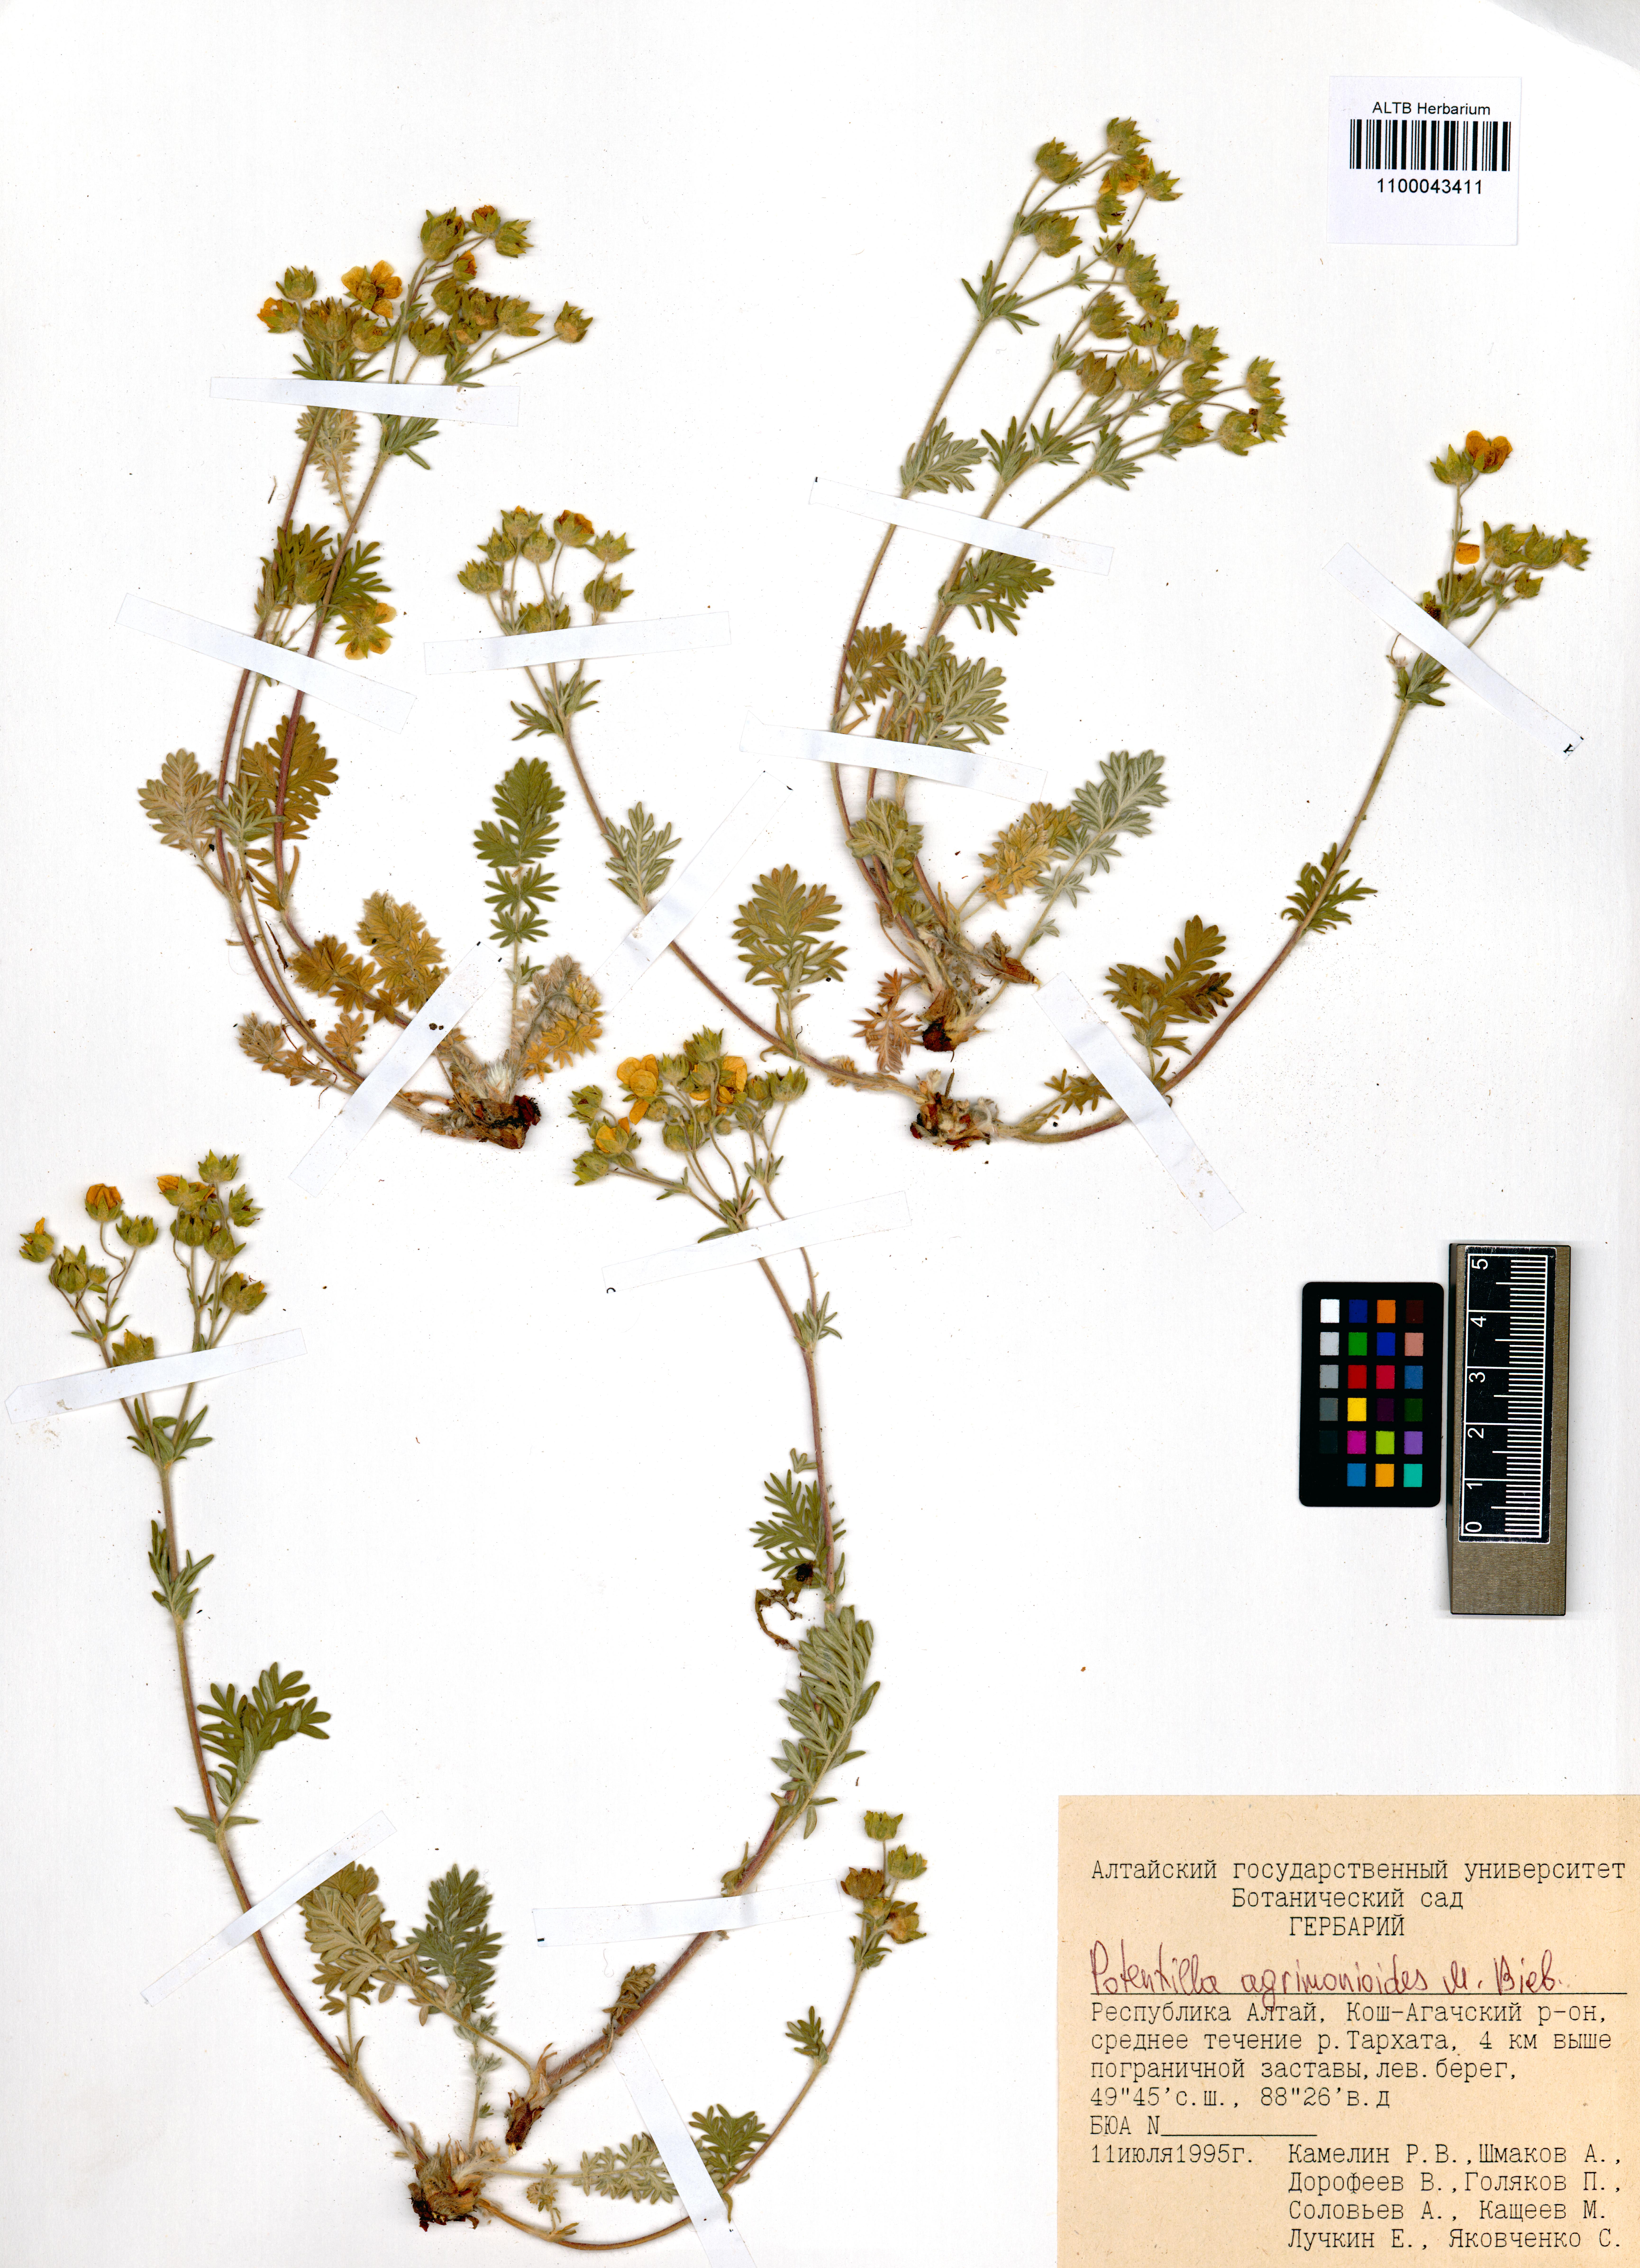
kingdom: Plantae
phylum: Tracheophyta
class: Magnoliopsida
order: Rosales
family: Rosaceae
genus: Potentilla
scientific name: Potentilla agrimonioides
